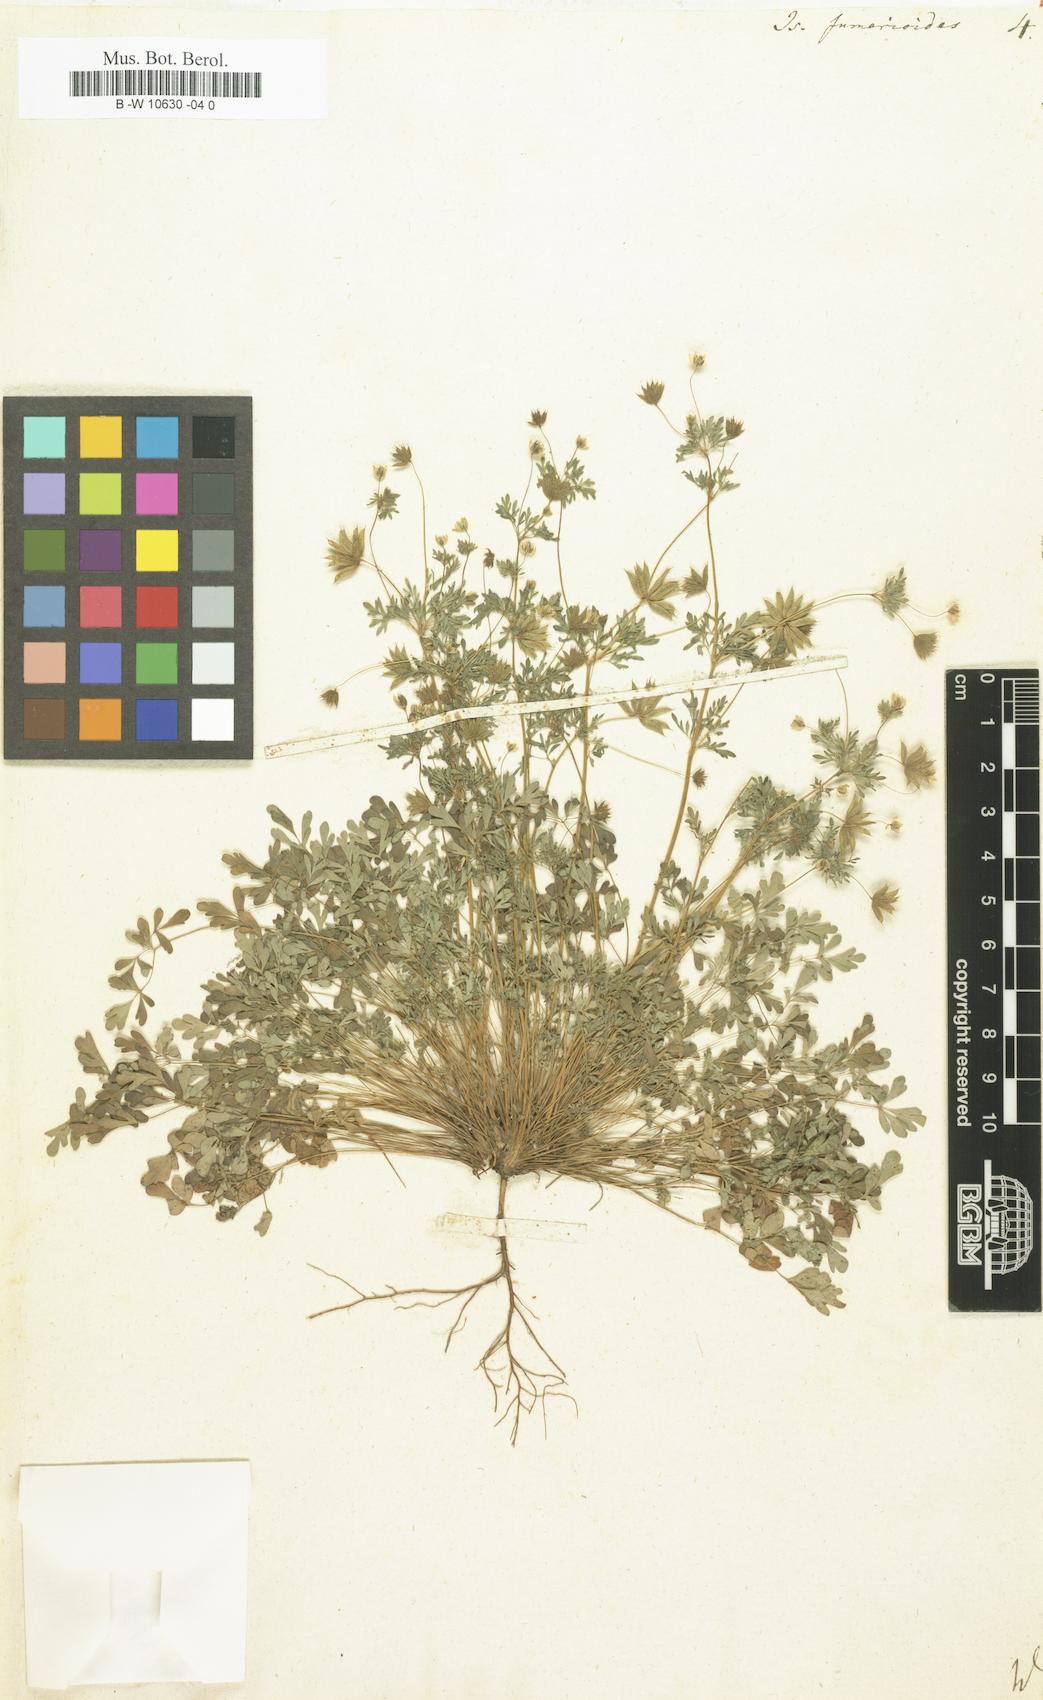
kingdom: Plantae
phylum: Tracheophyta
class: Magnoliopsida
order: Ranunculales
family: Ranunculaceae
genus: Leptopyrum
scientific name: Leptopyrum fumarioides
